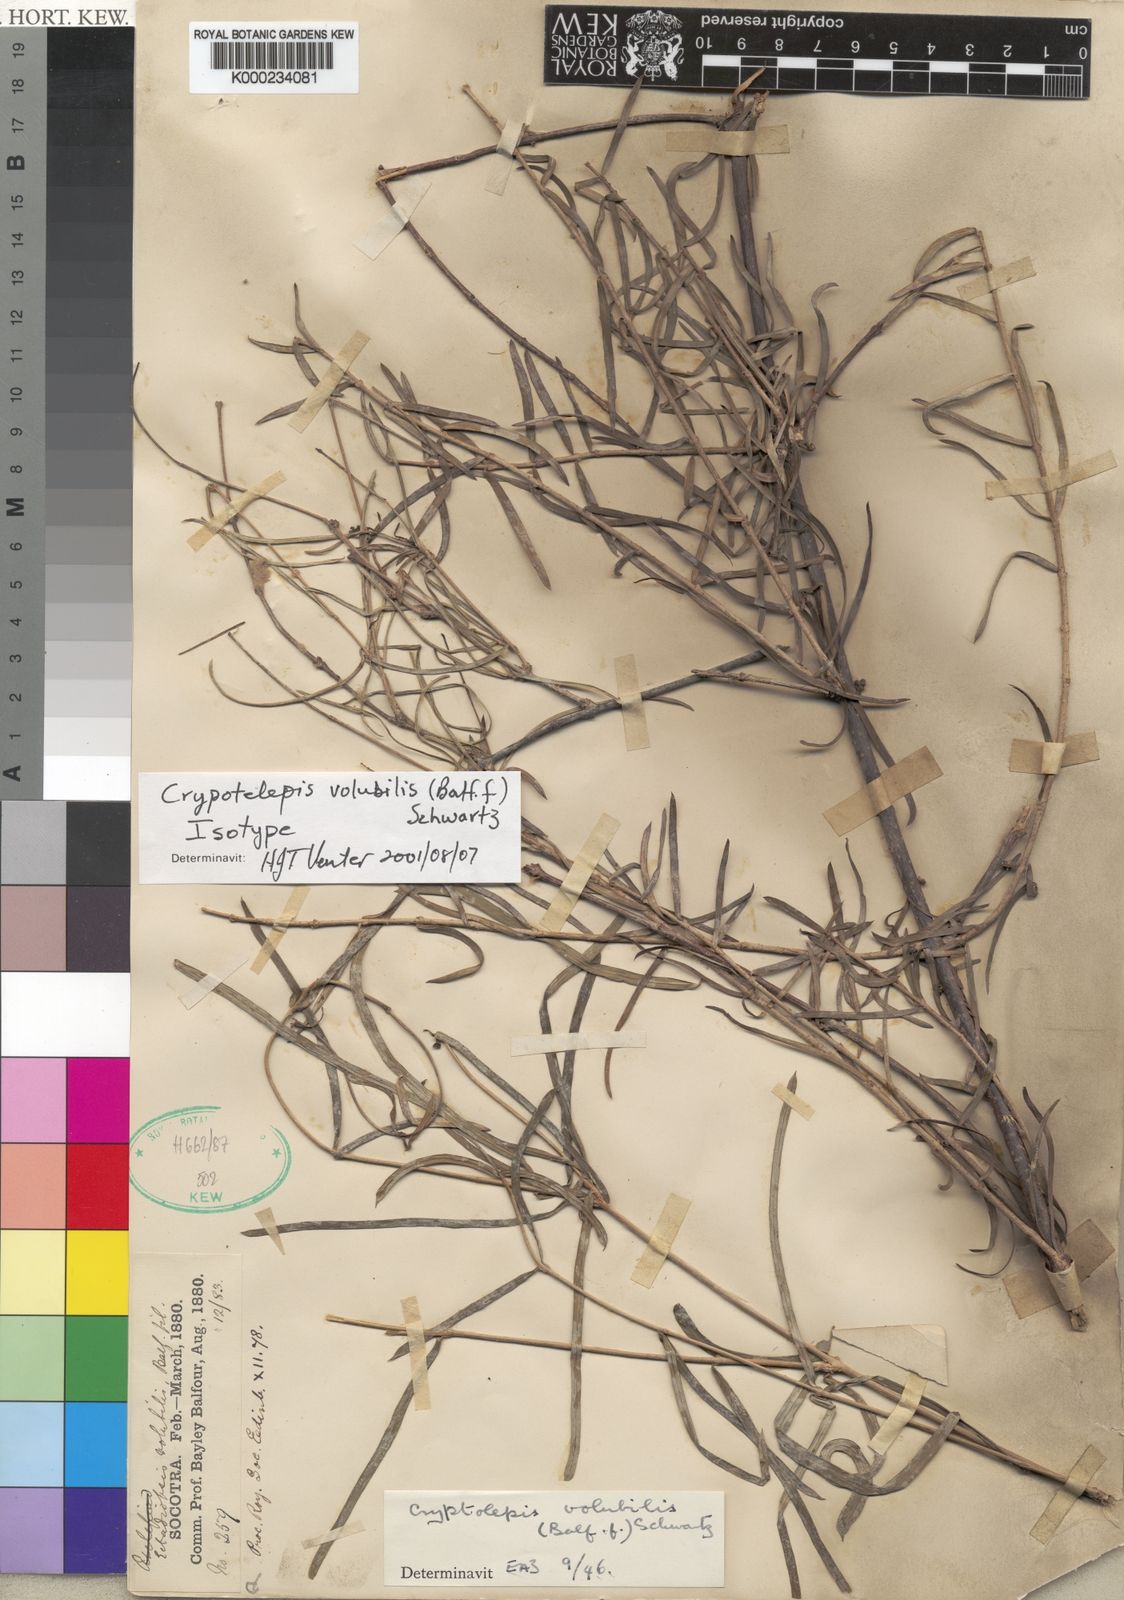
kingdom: Plantae
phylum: Tracheophyta
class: Magnoliopsida
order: Gentianales
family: Apocynaceae
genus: Cryptolepis
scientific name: Cryptolepis decidua
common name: Jackalplant
